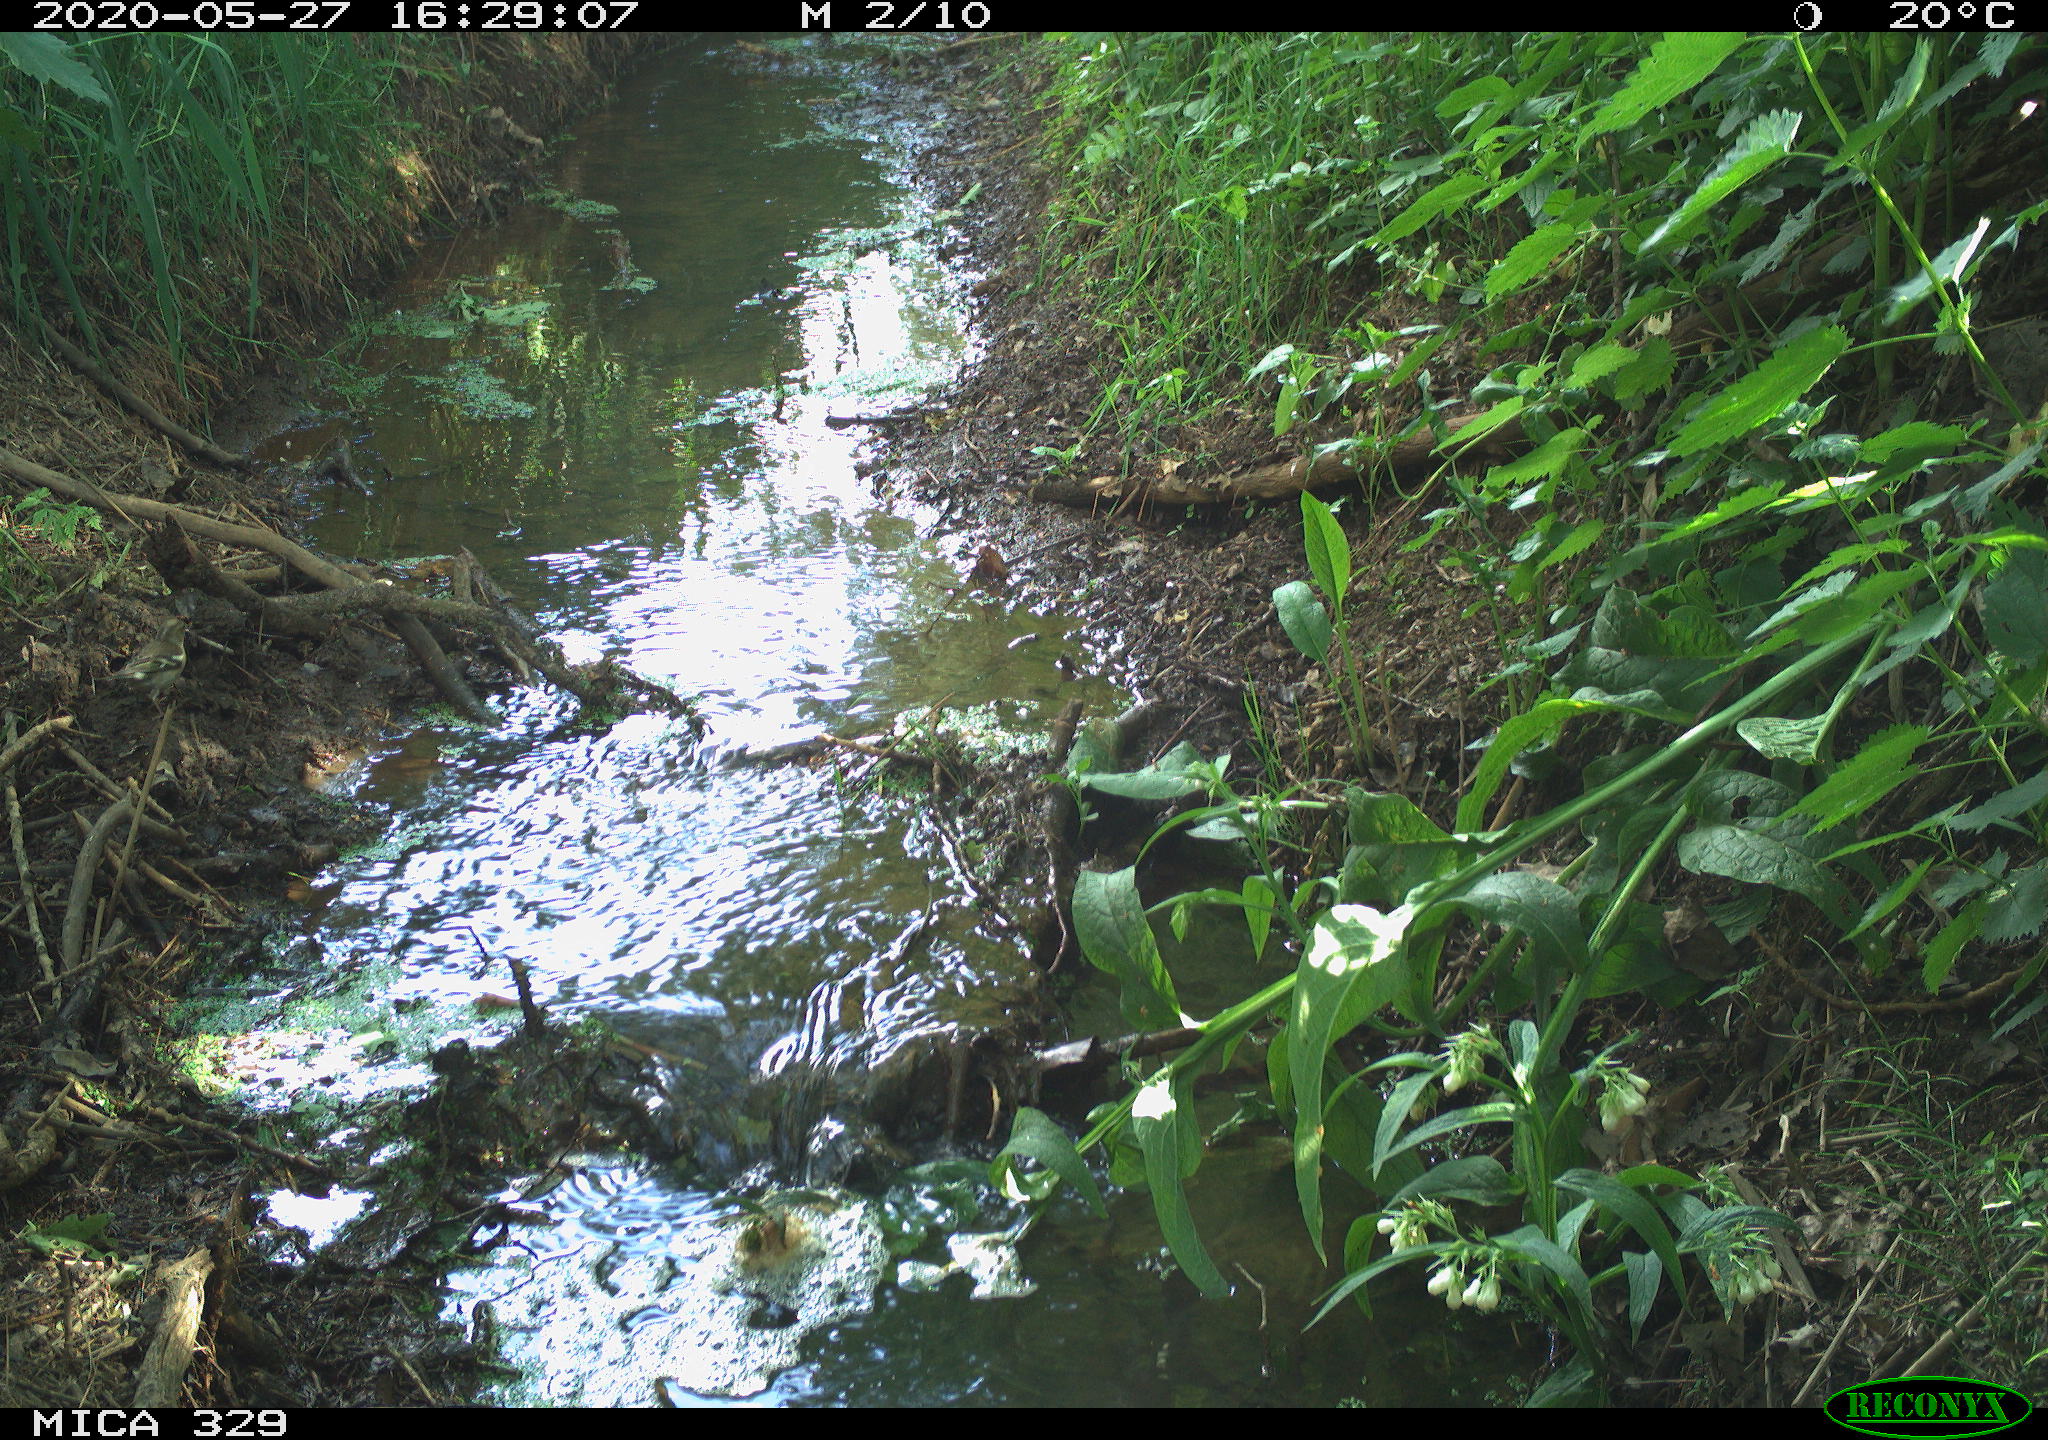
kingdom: Animalia
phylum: Chordata
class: Aves
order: Passeriformes
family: Fringillidae
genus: Fringilla
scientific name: Fringilla coelebs
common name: Common chaffinch
